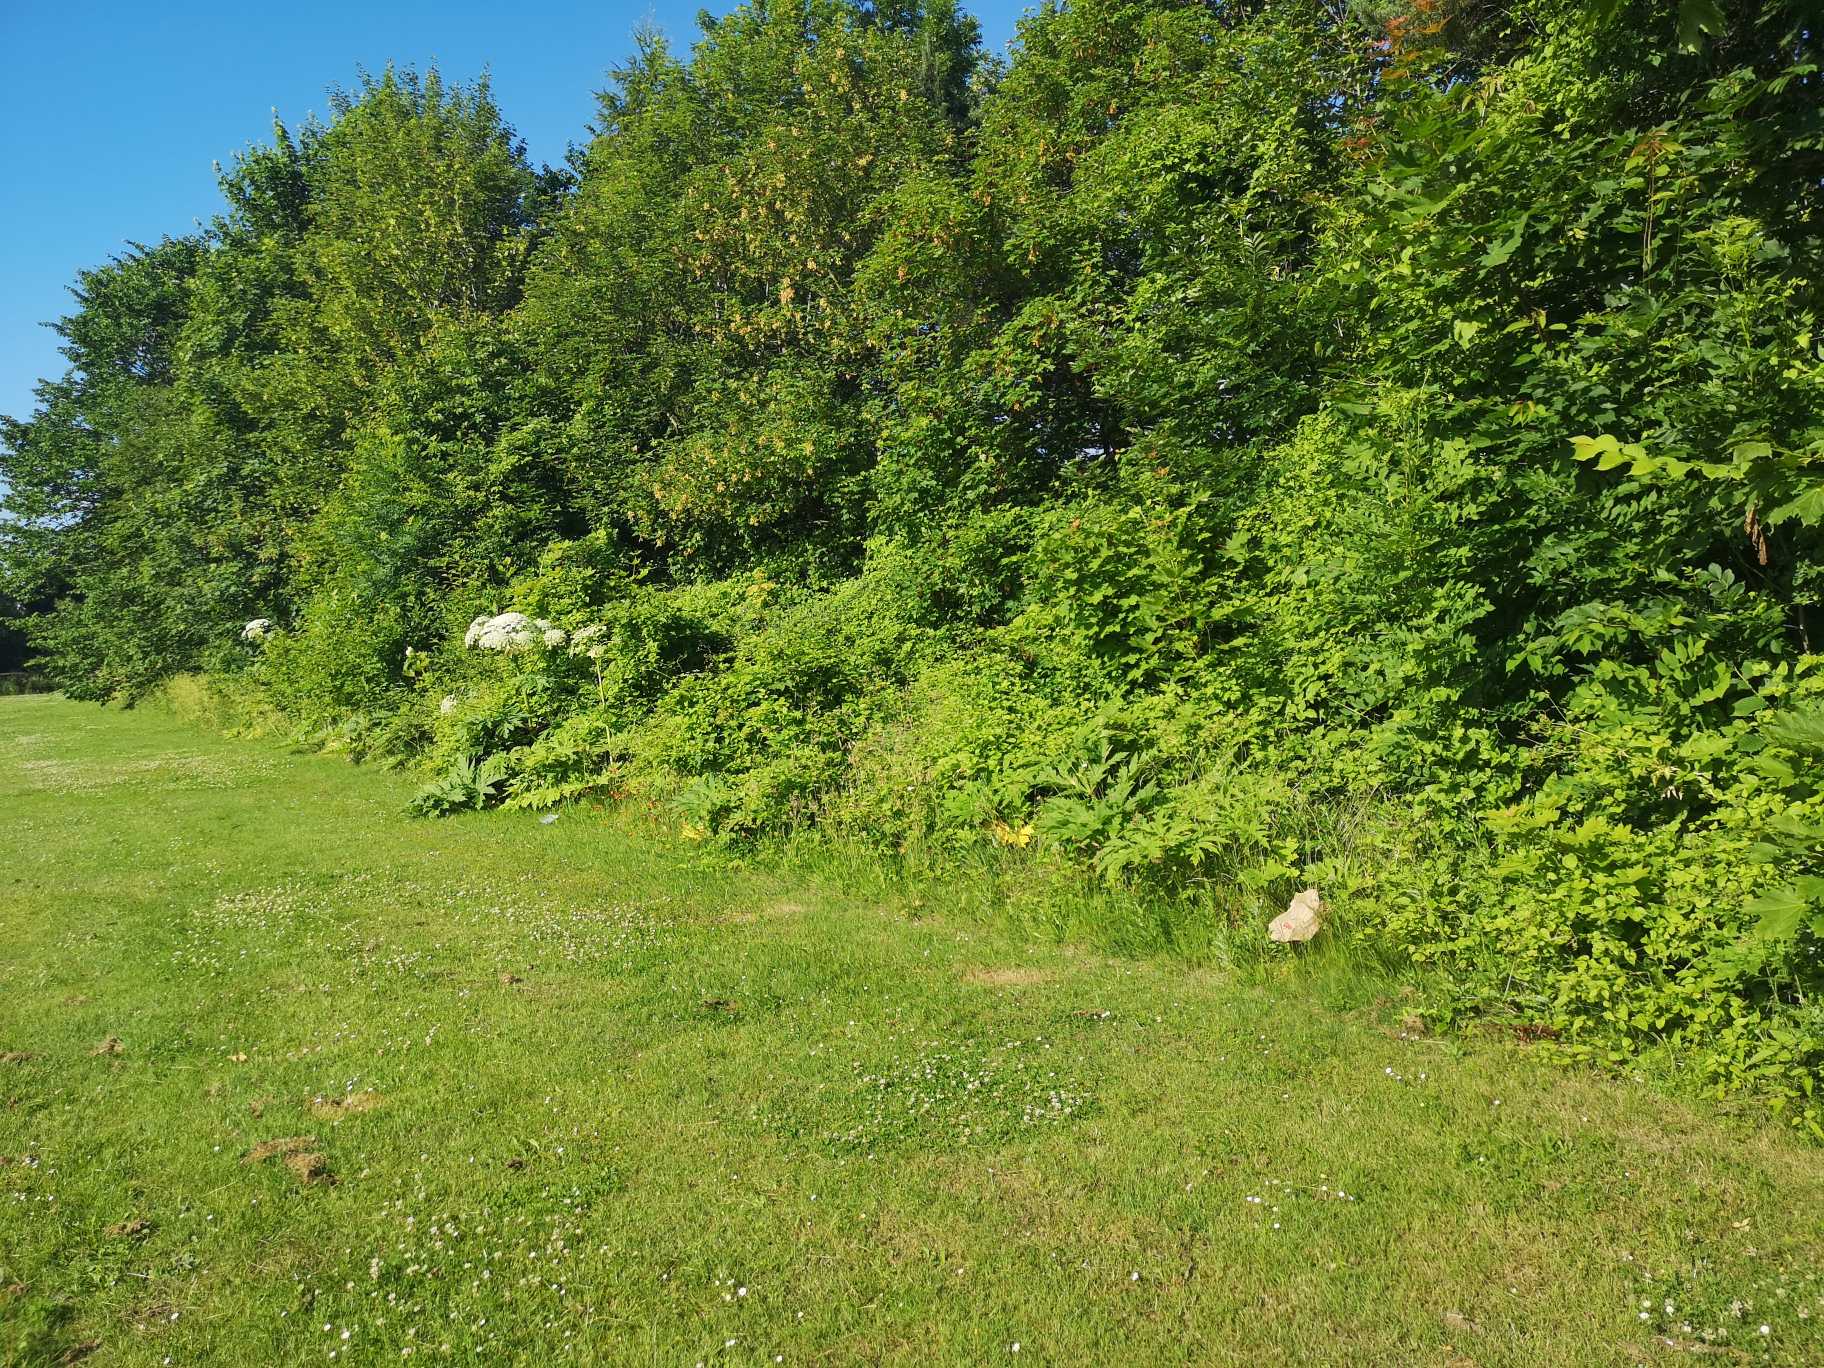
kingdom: Plantae
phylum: Tracheophyta
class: Magnoliopsida
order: Apiales
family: Apiaceae
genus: Heracleum
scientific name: Heracleum mantegazzianum
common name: Kæmpe-bjørneklo
